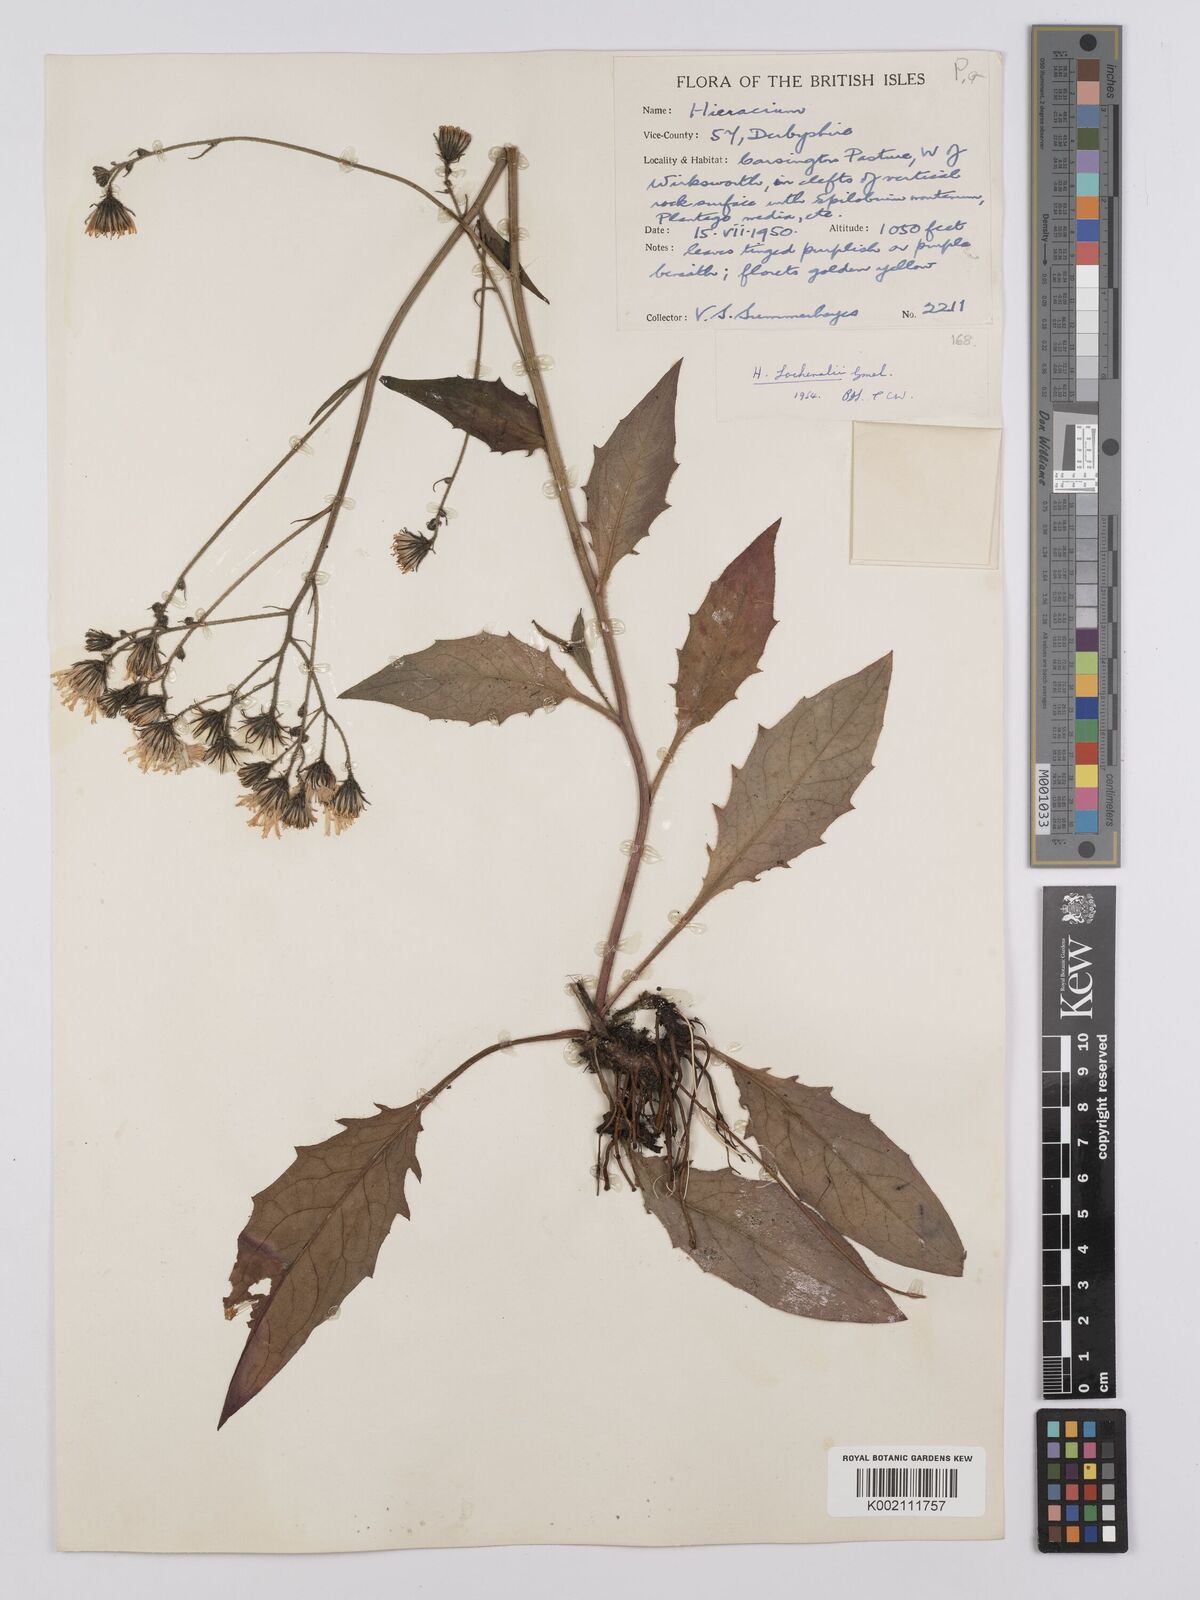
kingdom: Plantae
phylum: Tracheophyta
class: Magnoliopsida
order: Asterales
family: Asteraceae
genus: Hieracium
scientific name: Hieracium lachenalii
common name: Common hawkweed
